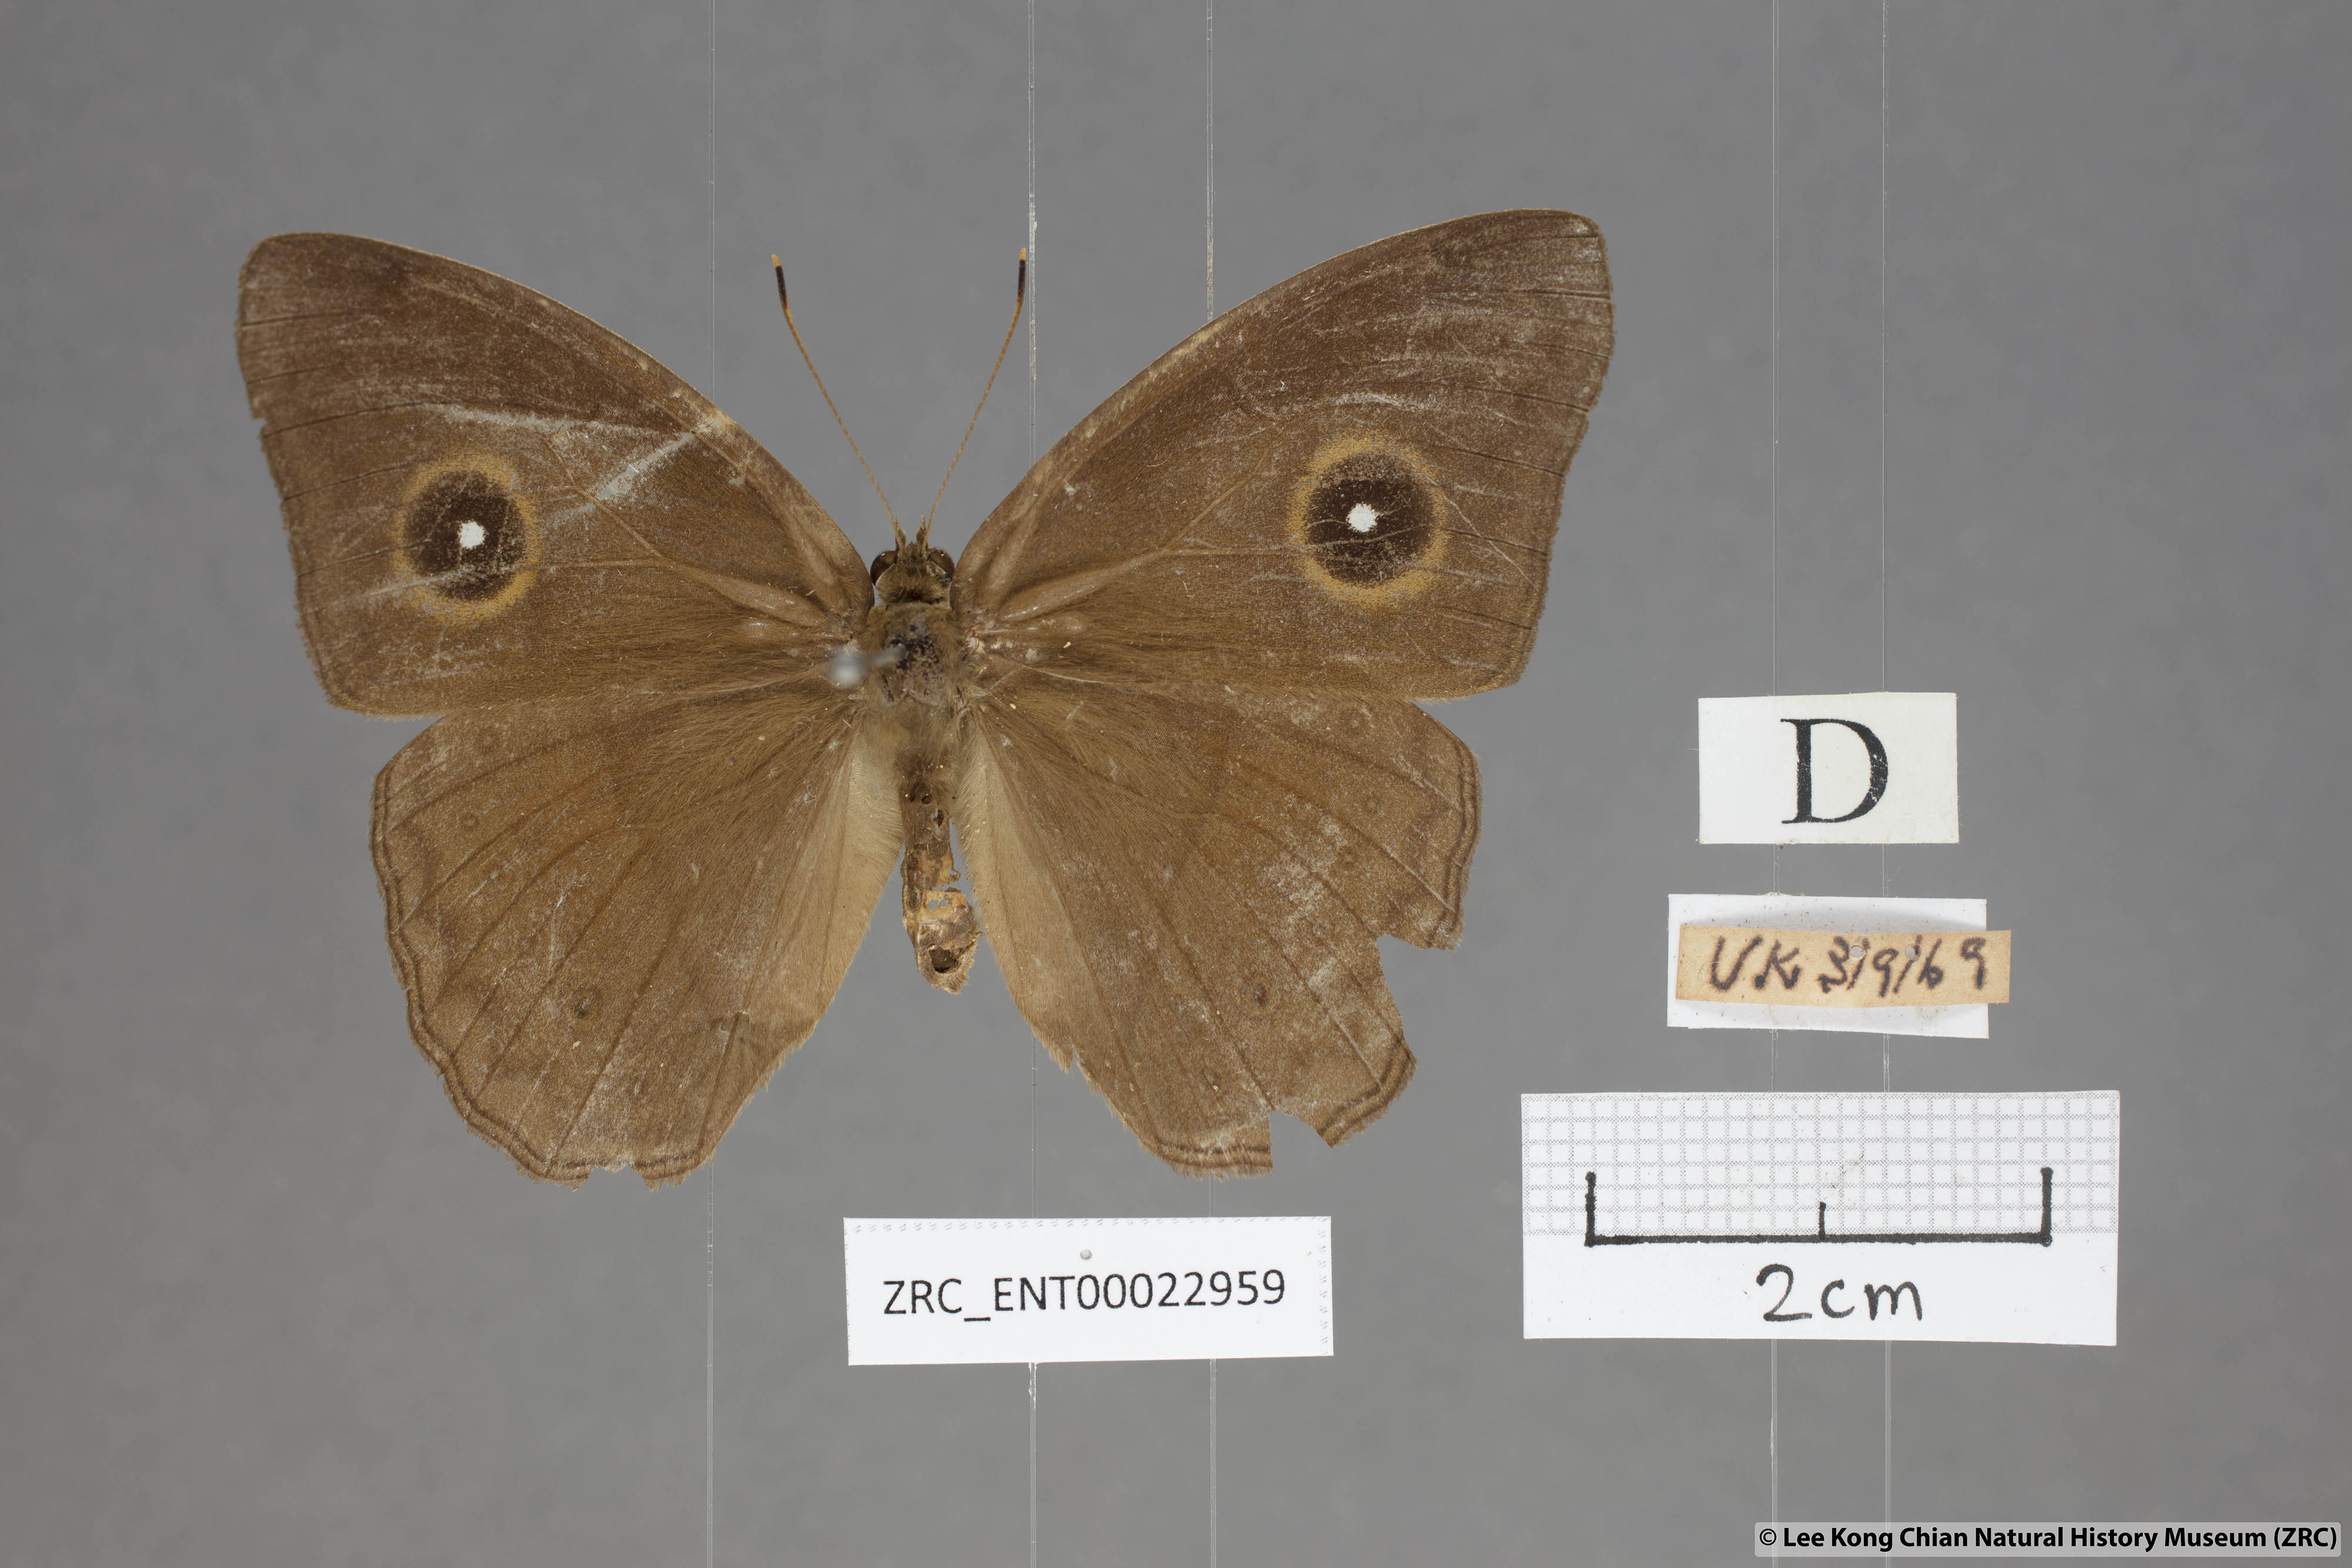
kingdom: Animalia
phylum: Arthropoda
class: Insecta
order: Lepidoptera
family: Nymphalidae
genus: Mycalesis
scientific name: Mycalesis mnasicles
